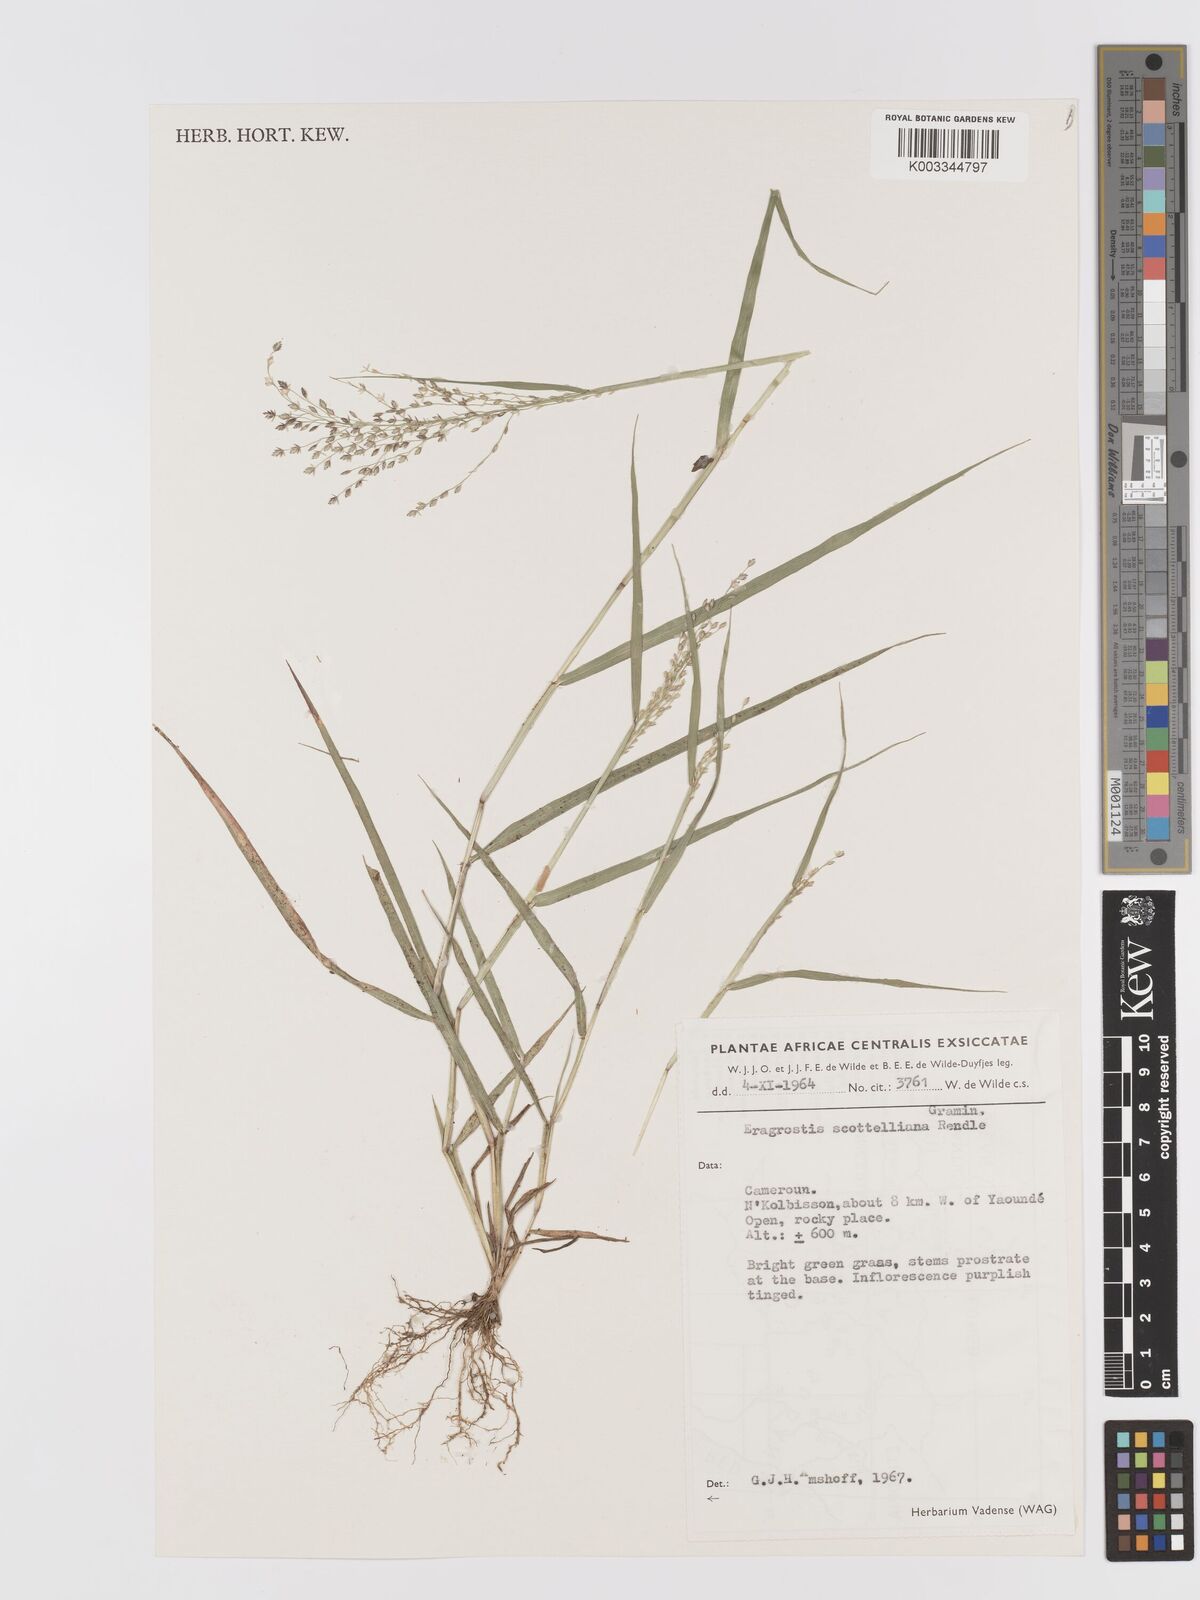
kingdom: Plantae
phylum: Tracheophyta
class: Liliopsida
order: Poales
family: Poaceae
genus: Eragrostis
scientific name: Eragrostis scotelliana
